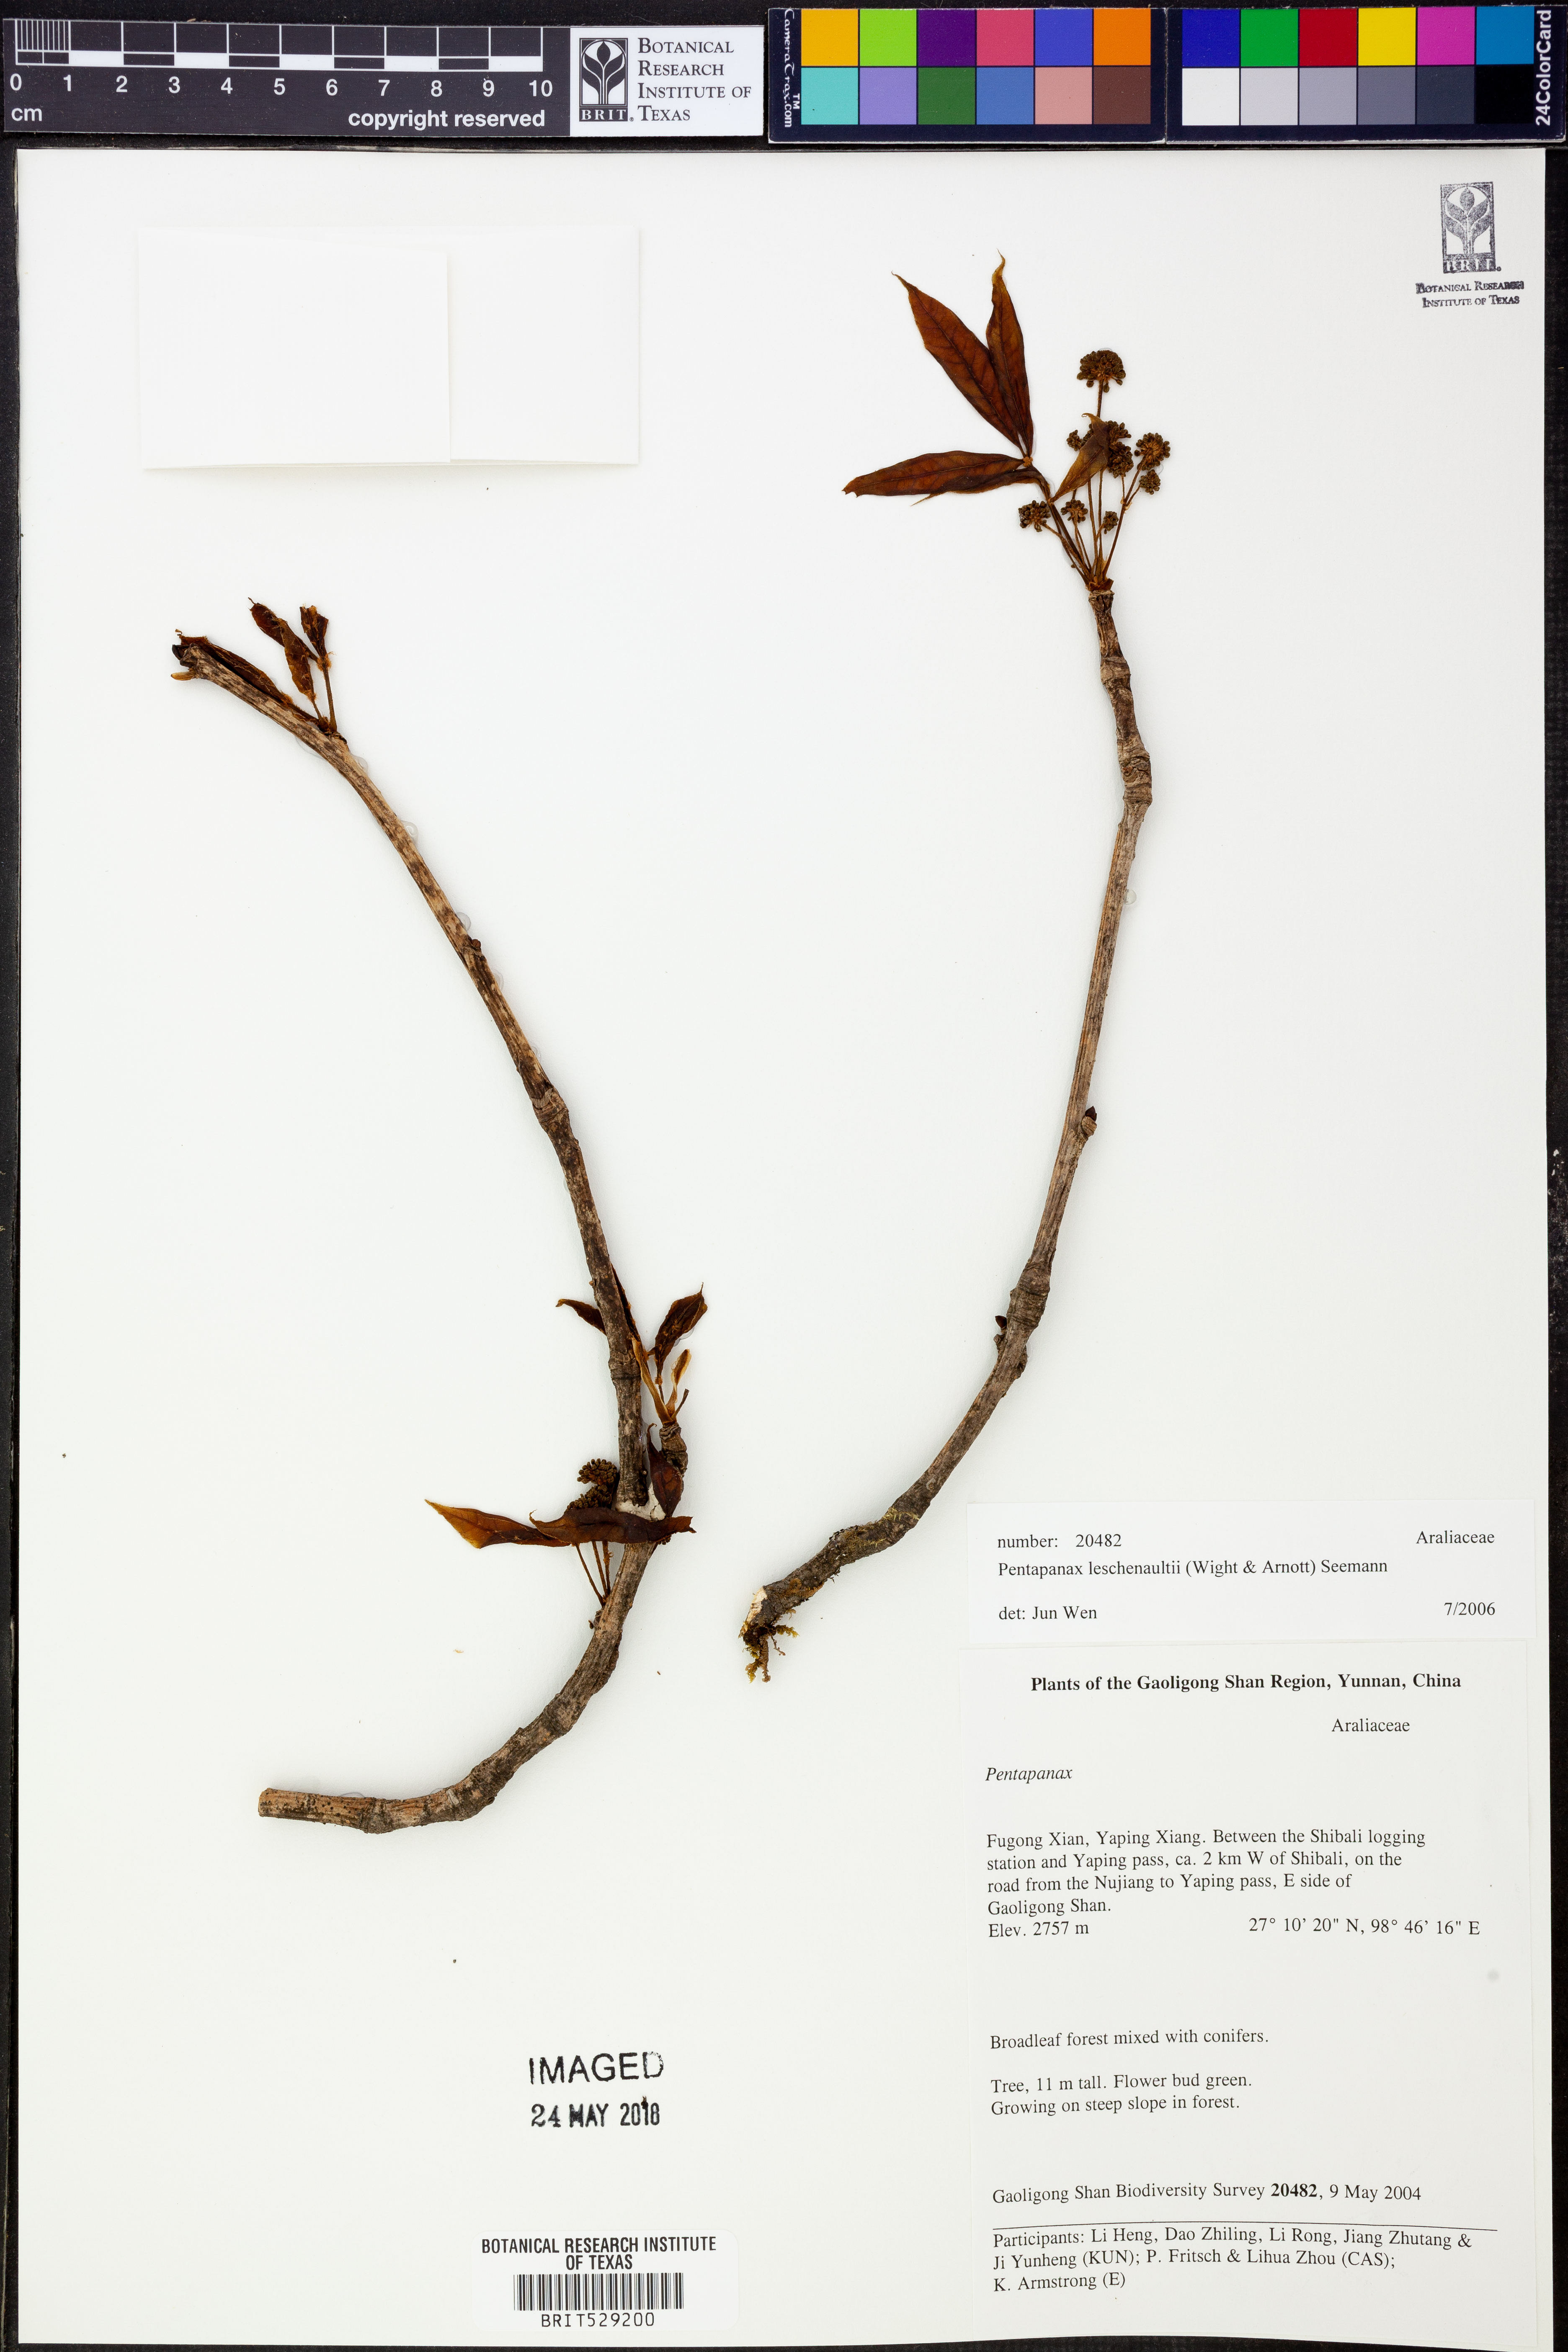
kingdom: Plantae
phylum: Tracheophyta
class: Magnoliopsida
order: Apiales
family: Araliaceae
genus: Aralia
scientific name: Aralia leschenaultii
